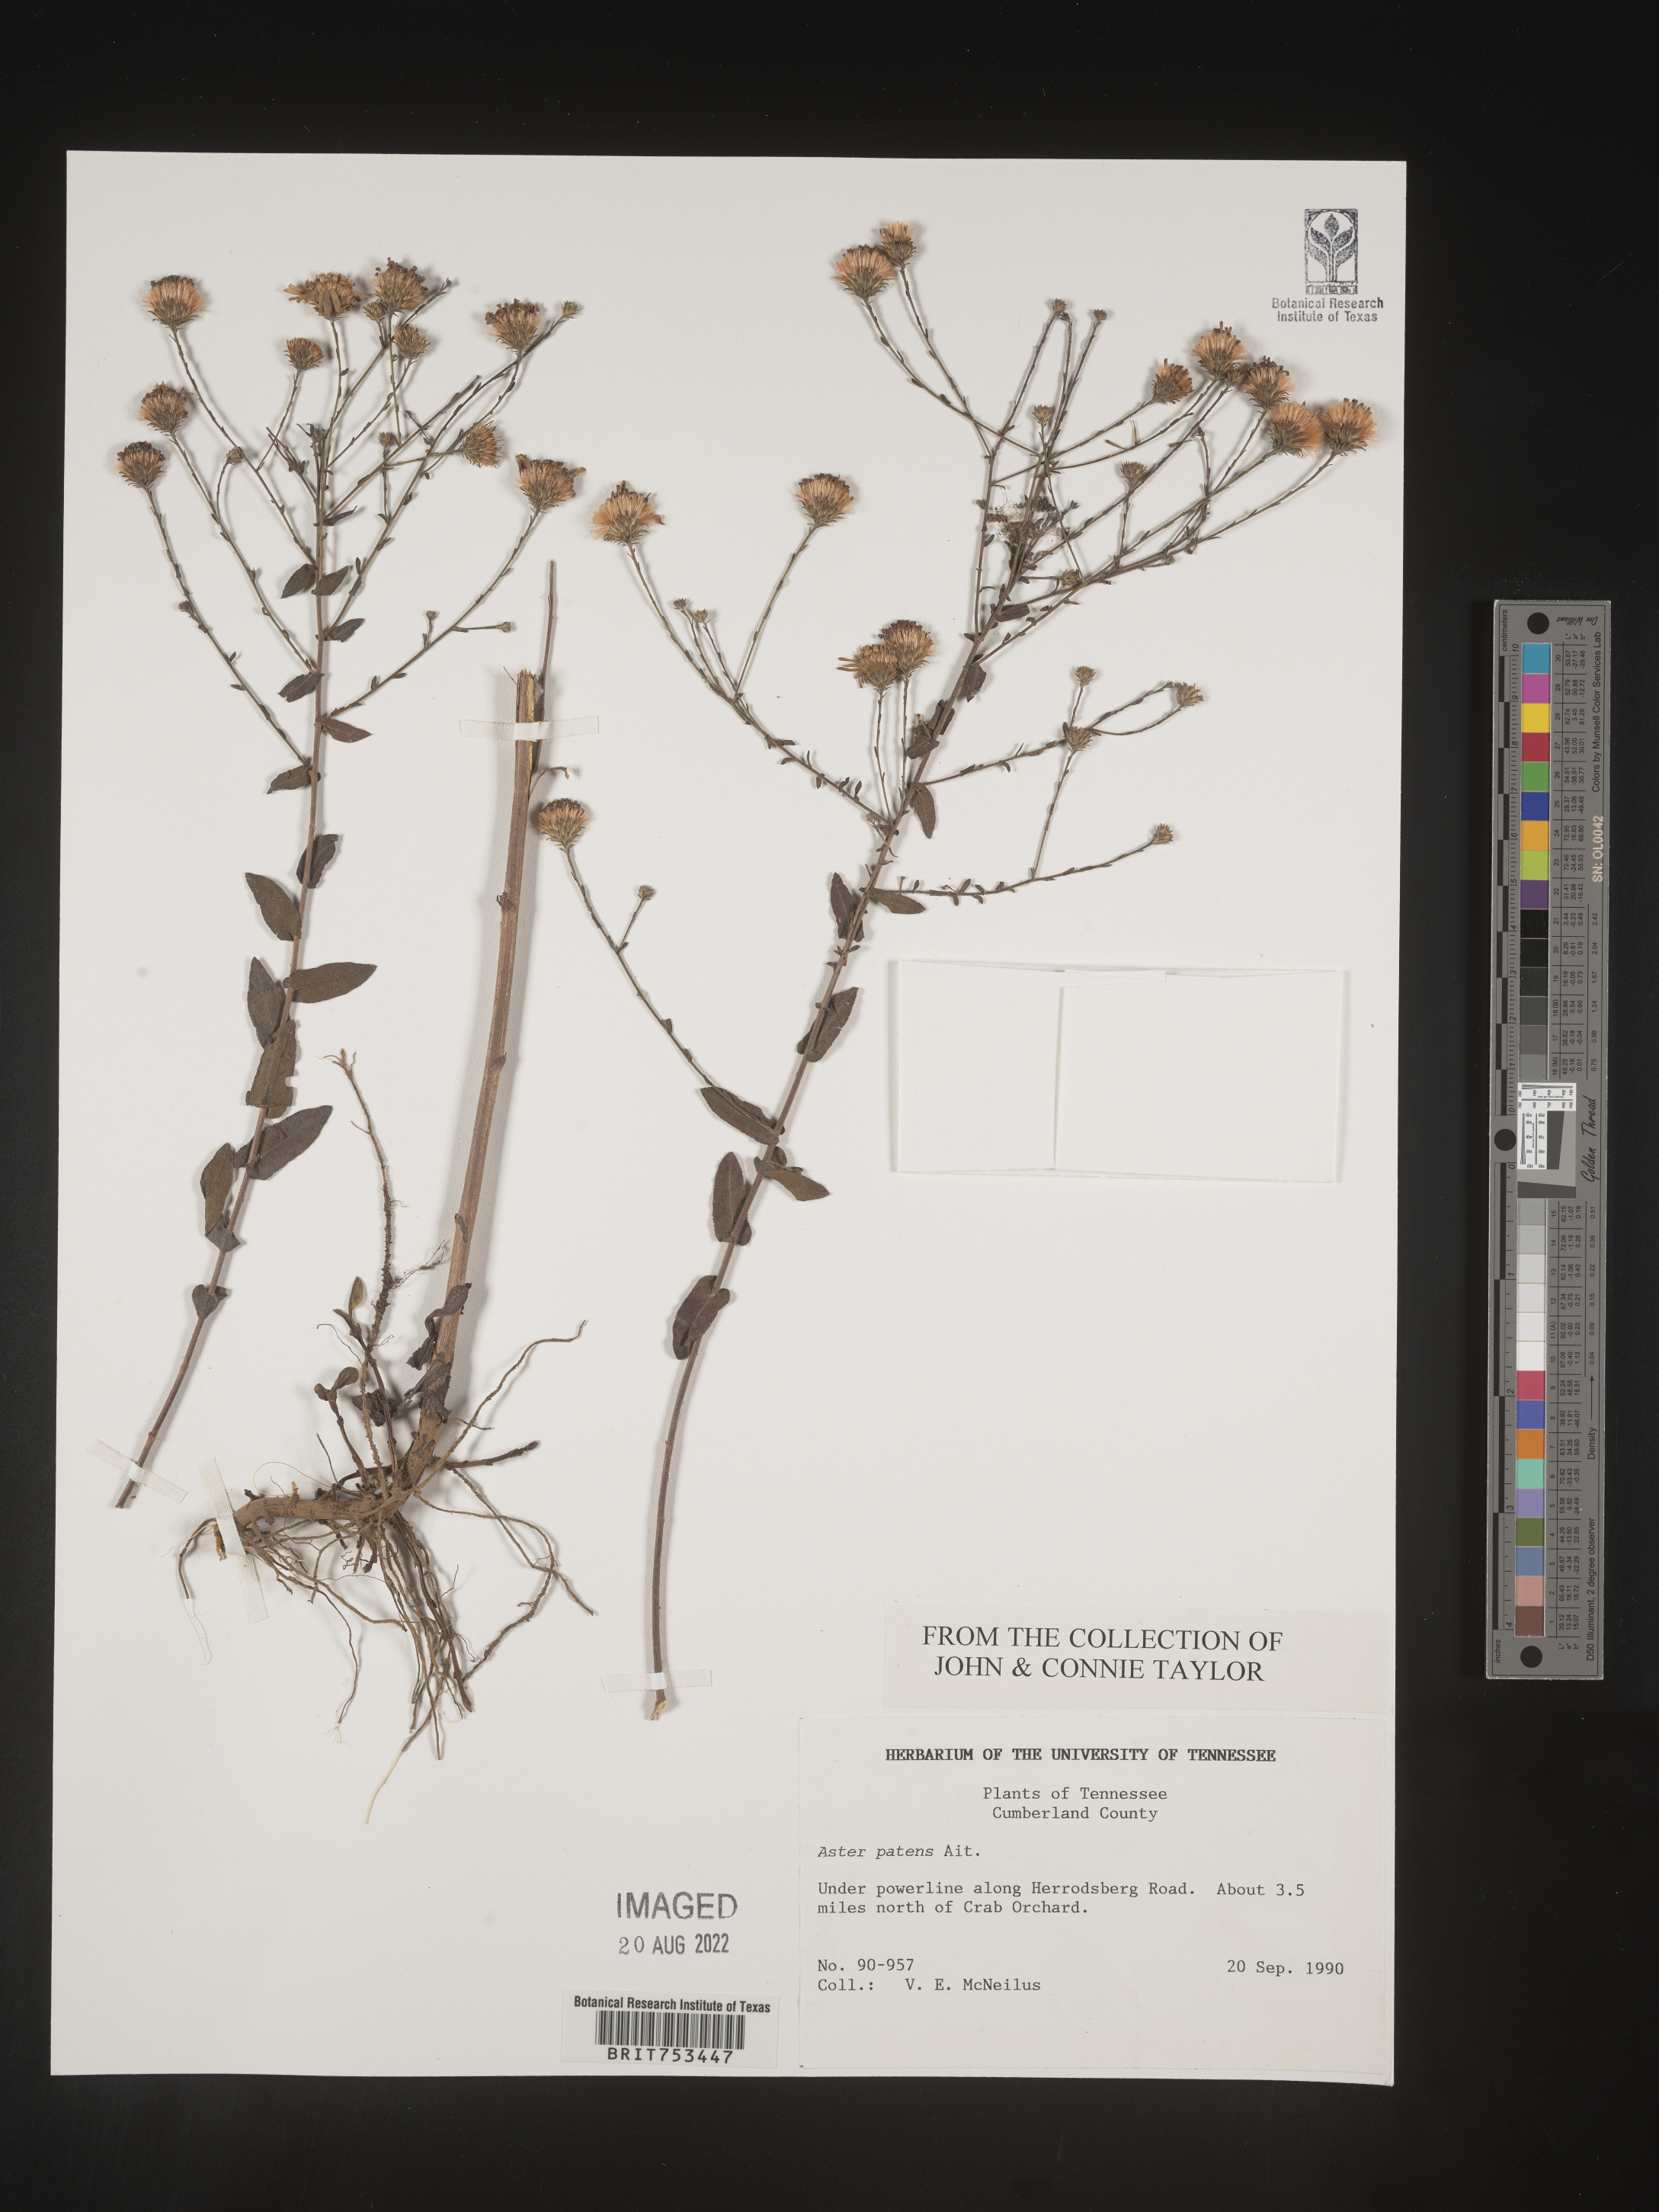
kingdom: Plantae
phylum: Tracheophyta
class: Magnoliopsida
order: Asterales
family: Asteraceae
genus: Symphyotrichum
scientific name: Symphyotrichum patens
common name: Late purple aster
